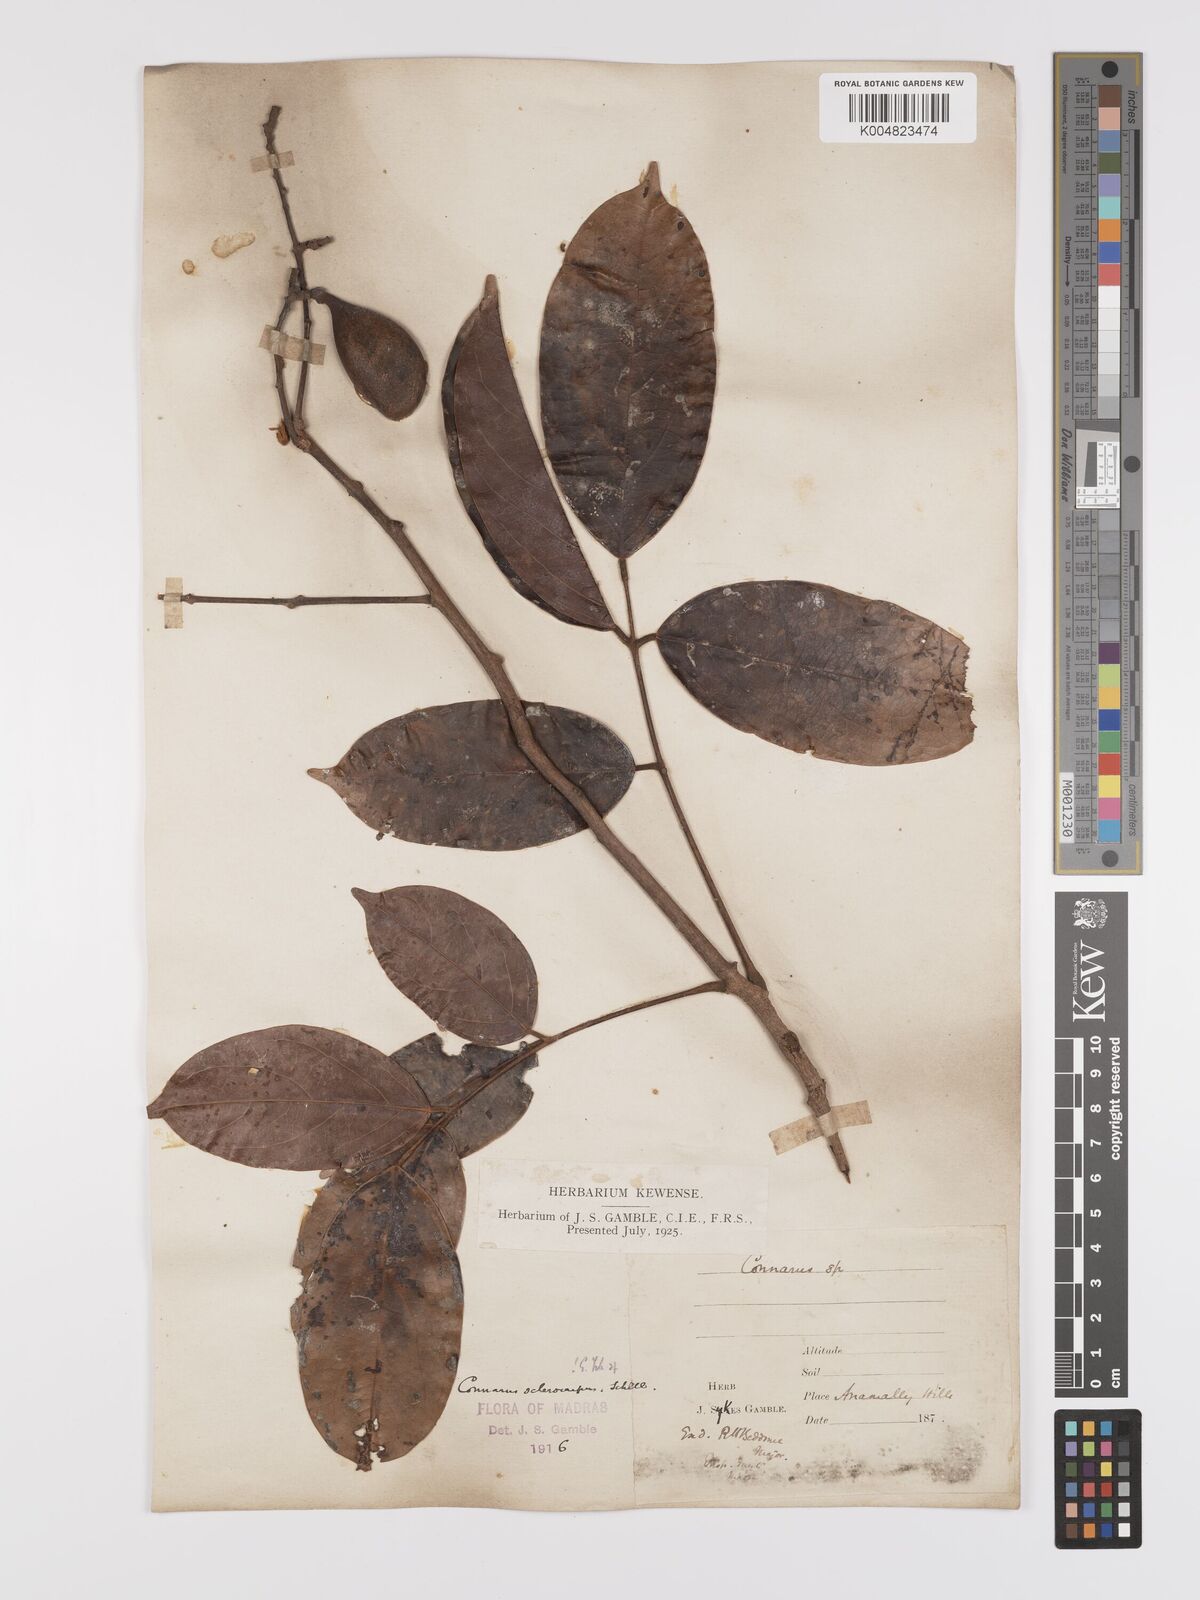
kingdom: Plantae
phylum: Tracheophyta
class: Magnoliopsida
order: Oxalidales
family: Connaraceae
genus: Connarus
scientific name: Connarus sclerocarpus
